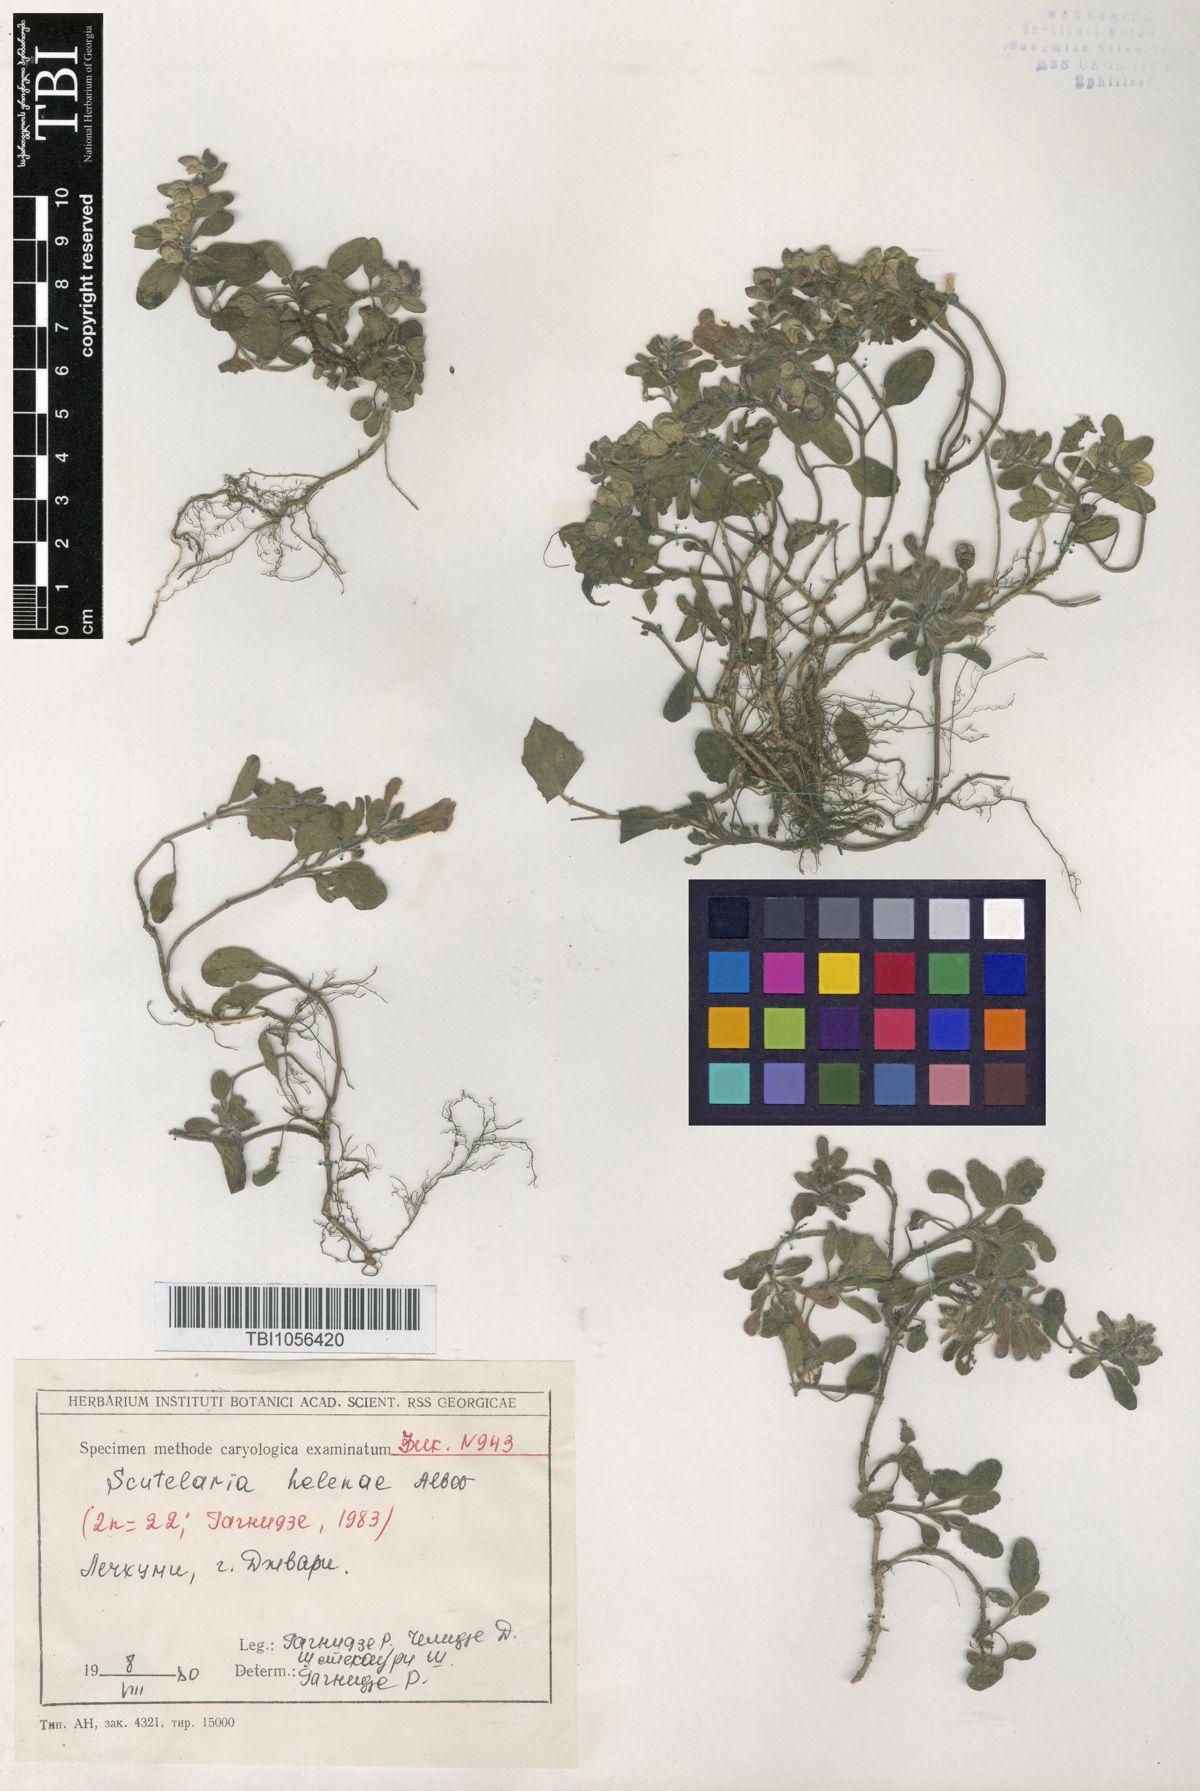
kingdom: Plantae
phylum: Tracheophyta
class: Magnoliopsida
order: Lamiales
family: Lamiaceae
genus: Scutellaria
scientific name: Scutellaria helenae
